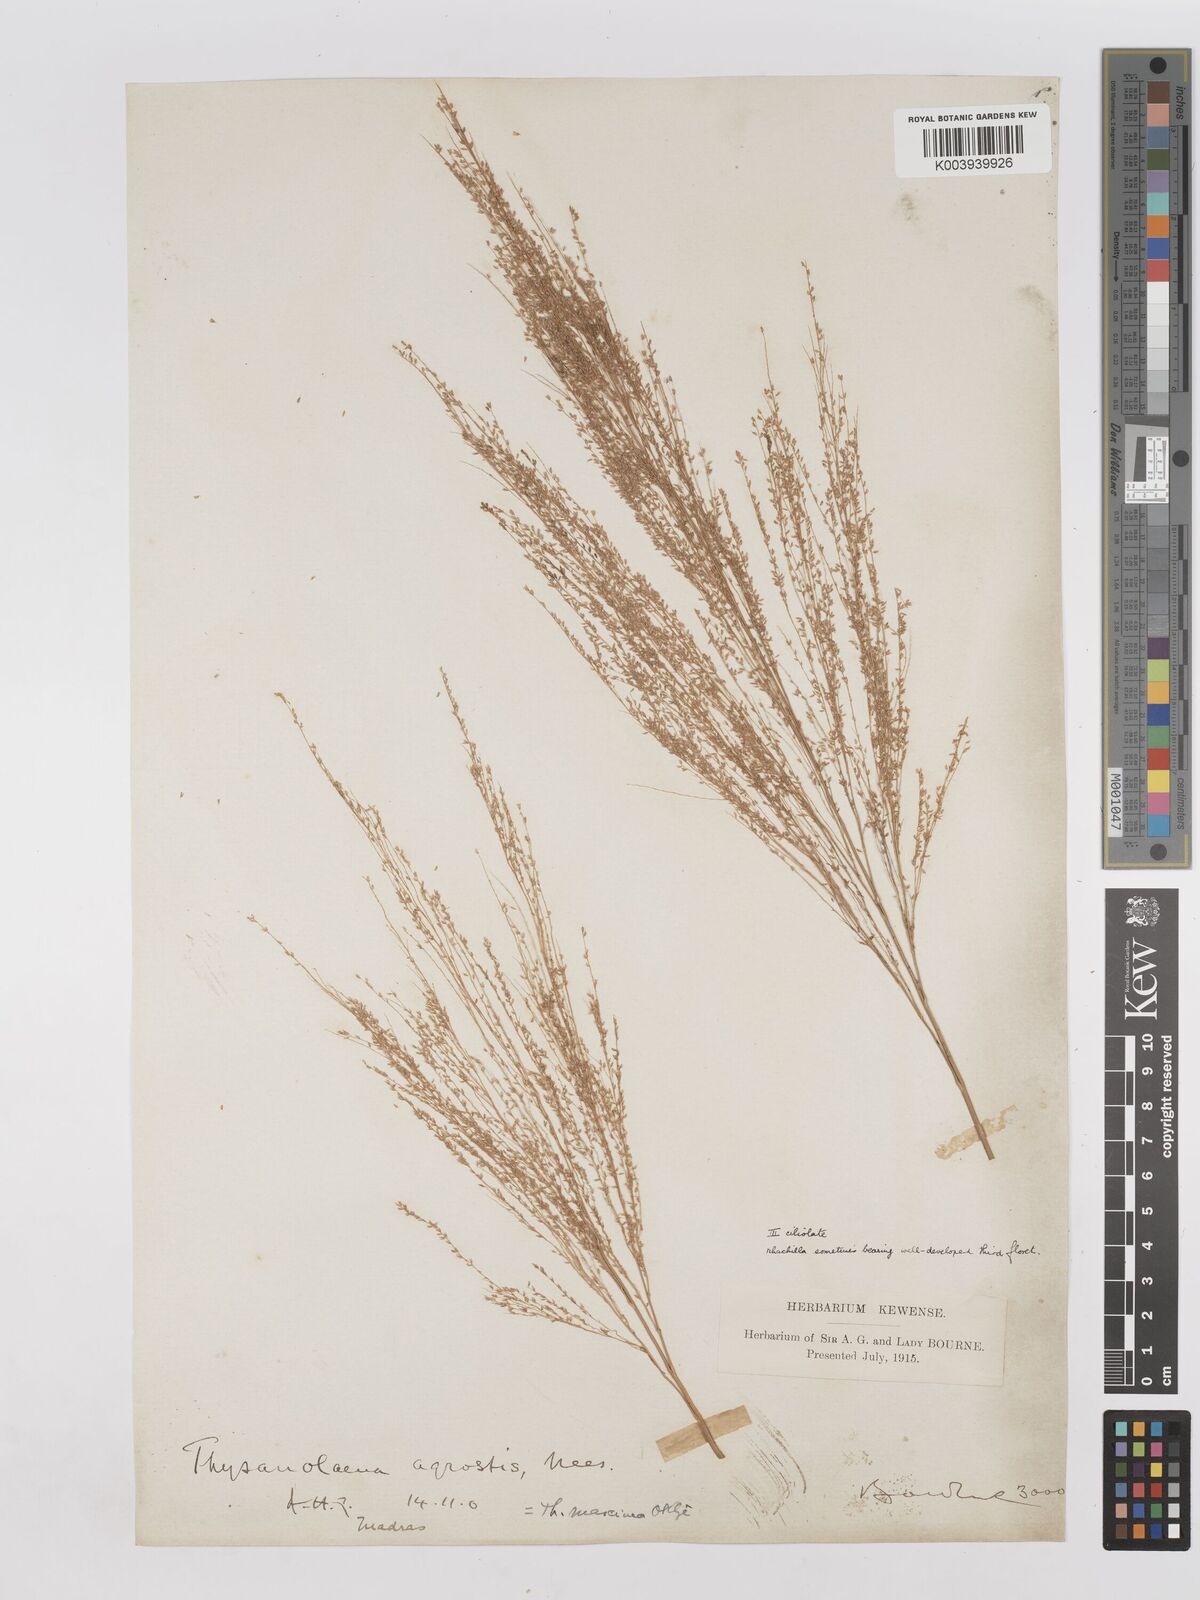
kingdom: Plantae
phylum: Tracheophyta
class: Liliopsida
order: Poales
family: Poaceae
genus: Thysanolaena
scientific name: Thysanolaena latifolia
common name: Tiger grass
